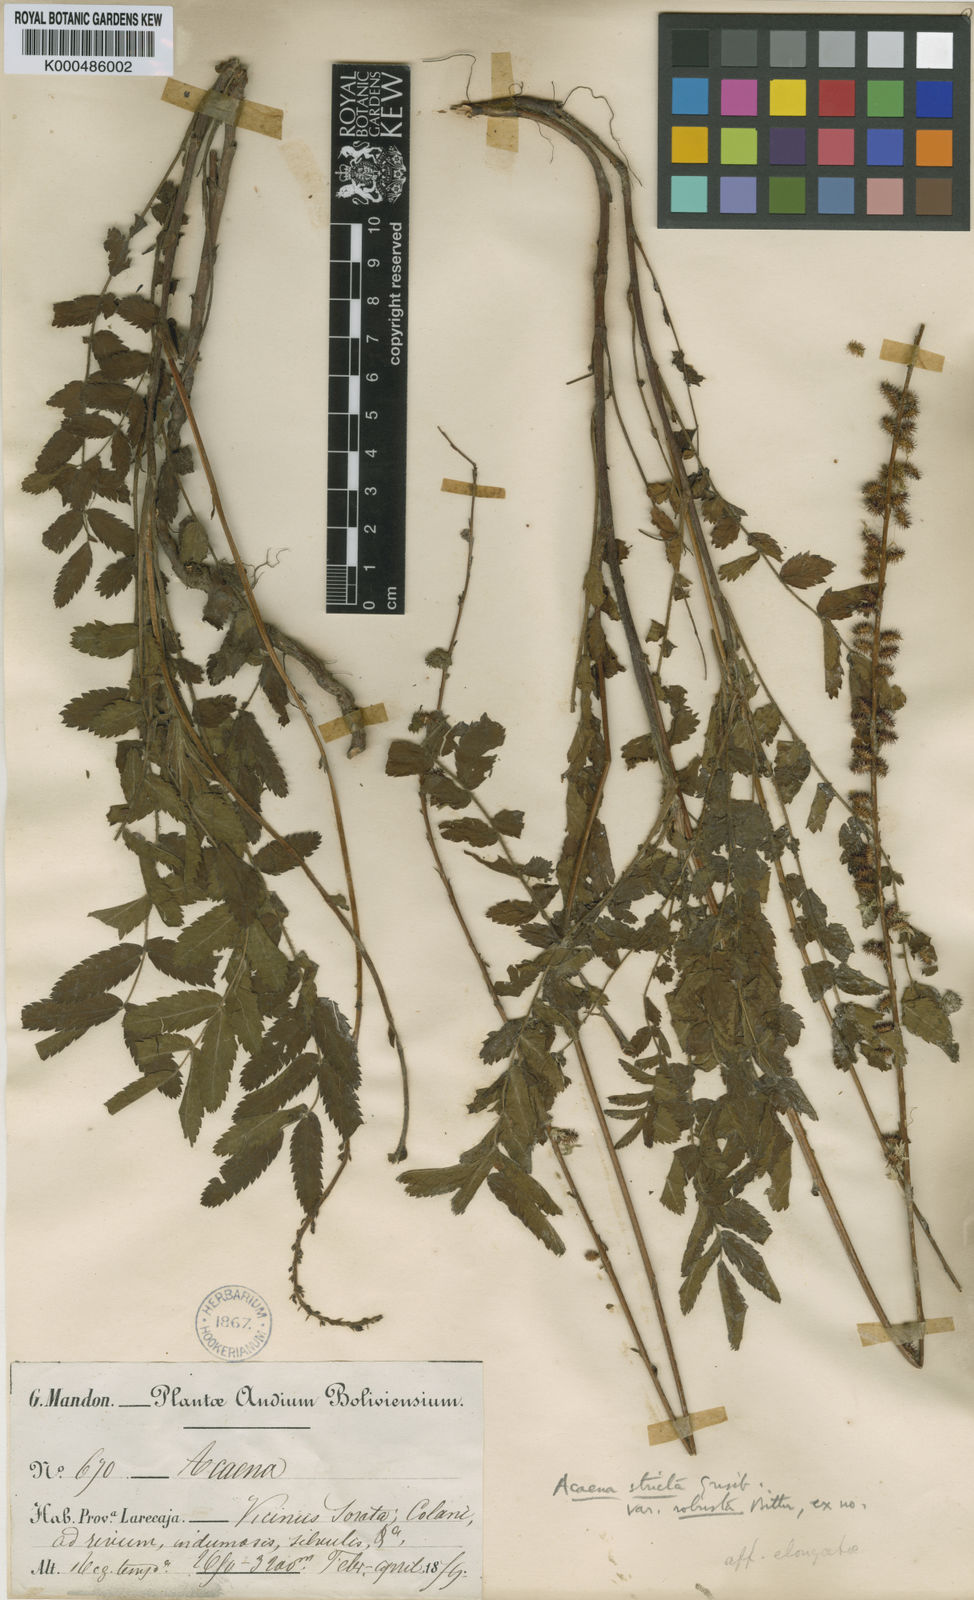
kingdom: Plantae
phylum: Tracheophyta
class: Magnoliopsida
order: Rosales
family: Rosaceae
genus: Acaena
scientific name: Acaena stricta
